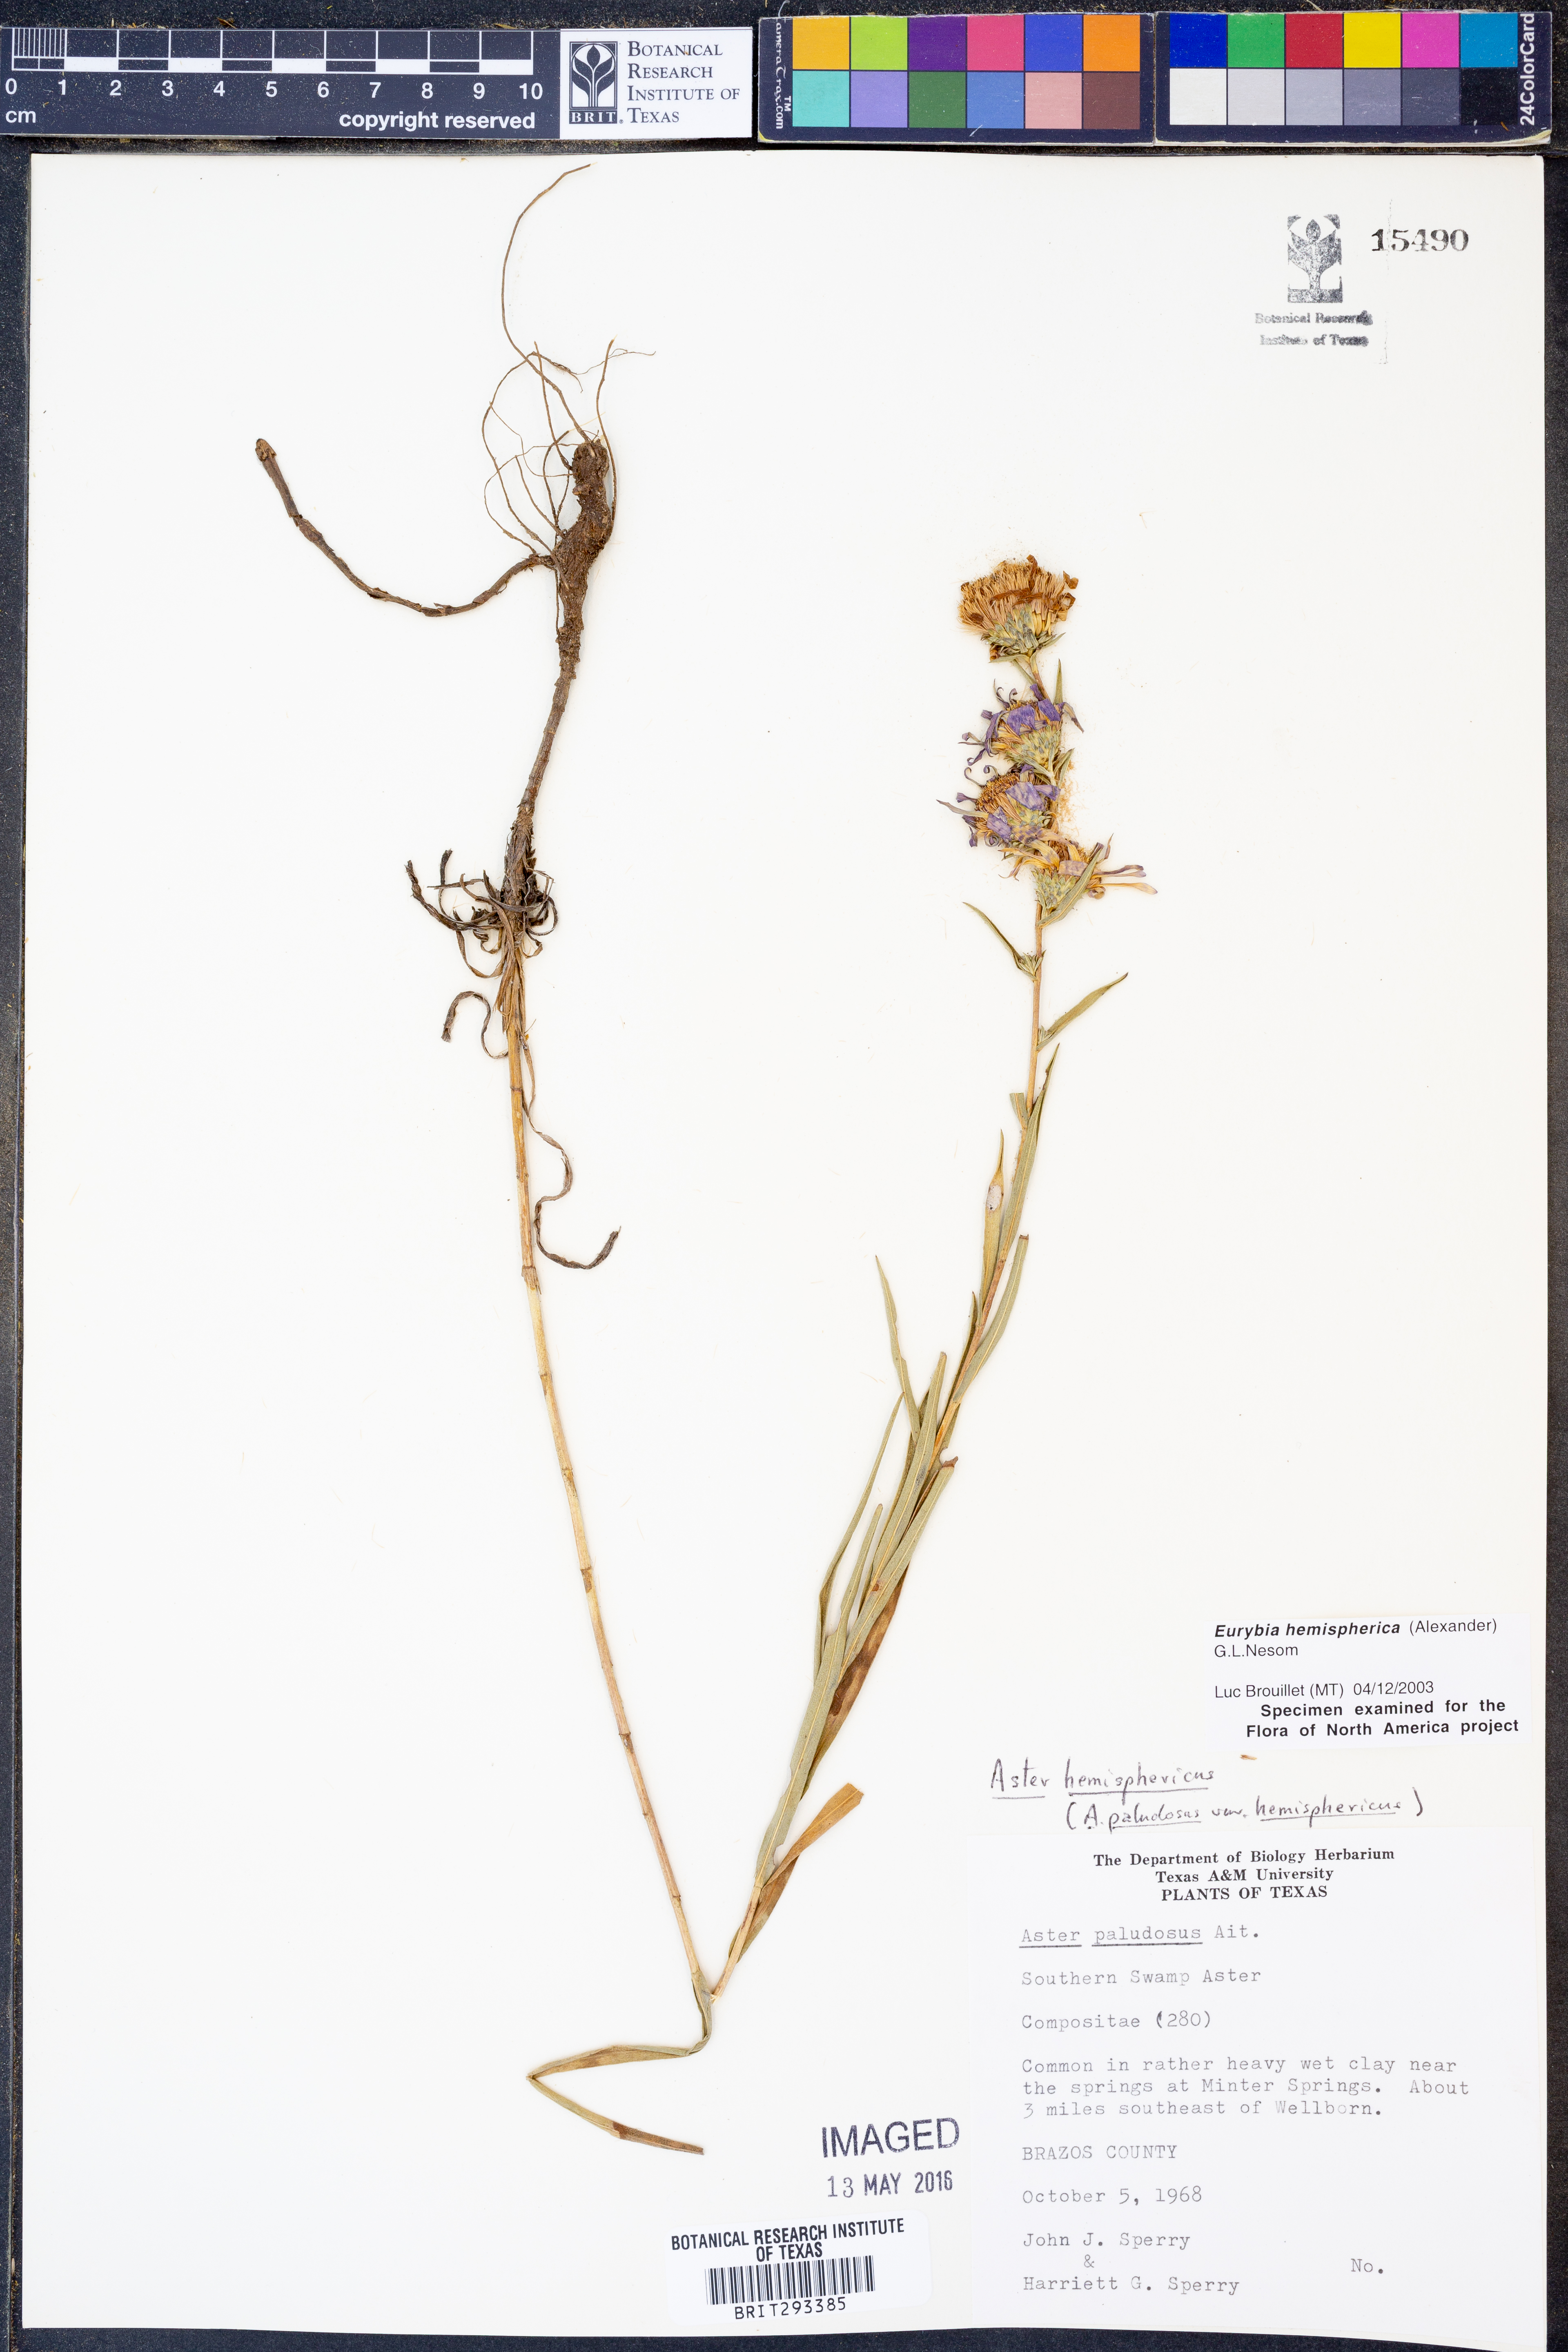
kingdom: Plantae
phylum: Tracheophyta
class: Magnoliopsida
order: Asterales
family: Asteraceae
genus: Eurybia
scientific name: Eurybia hemispherica
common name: Showy aster
